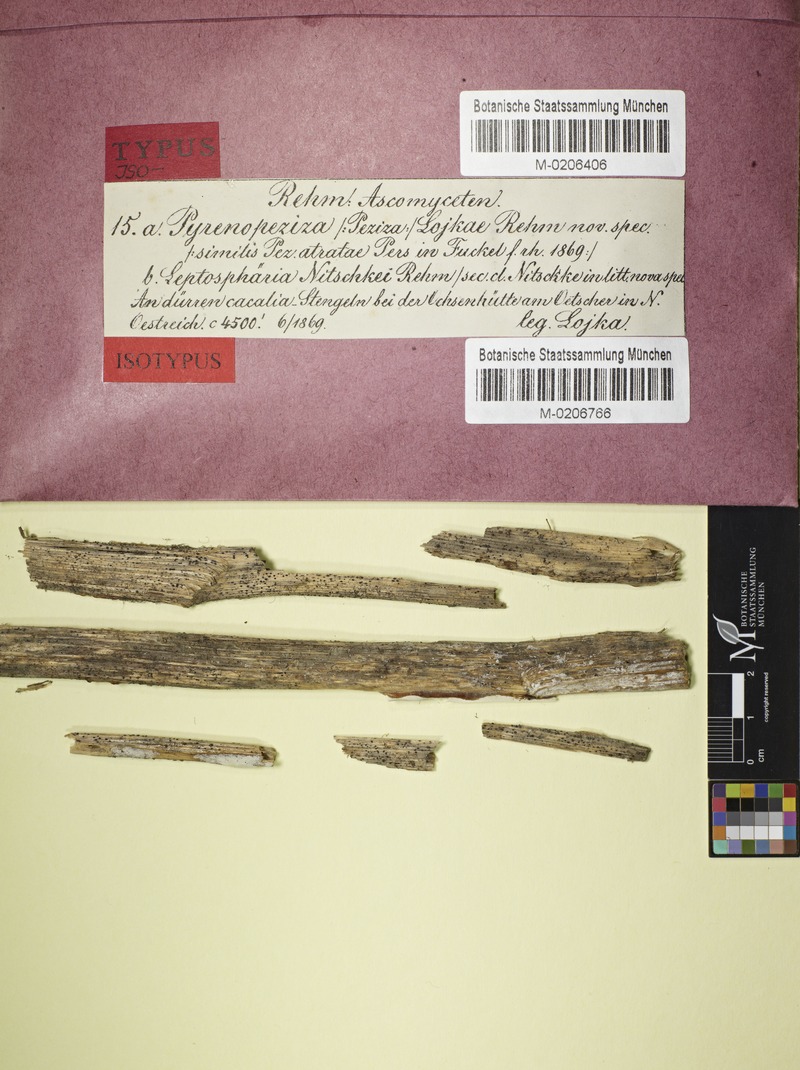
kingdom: Fungi
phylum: Ascomycota
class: Leotiomycetes
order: Helotiales
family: Heterosphaeriaceae
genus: Heterosphaeria
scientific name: Heterosphaeria lojkae
